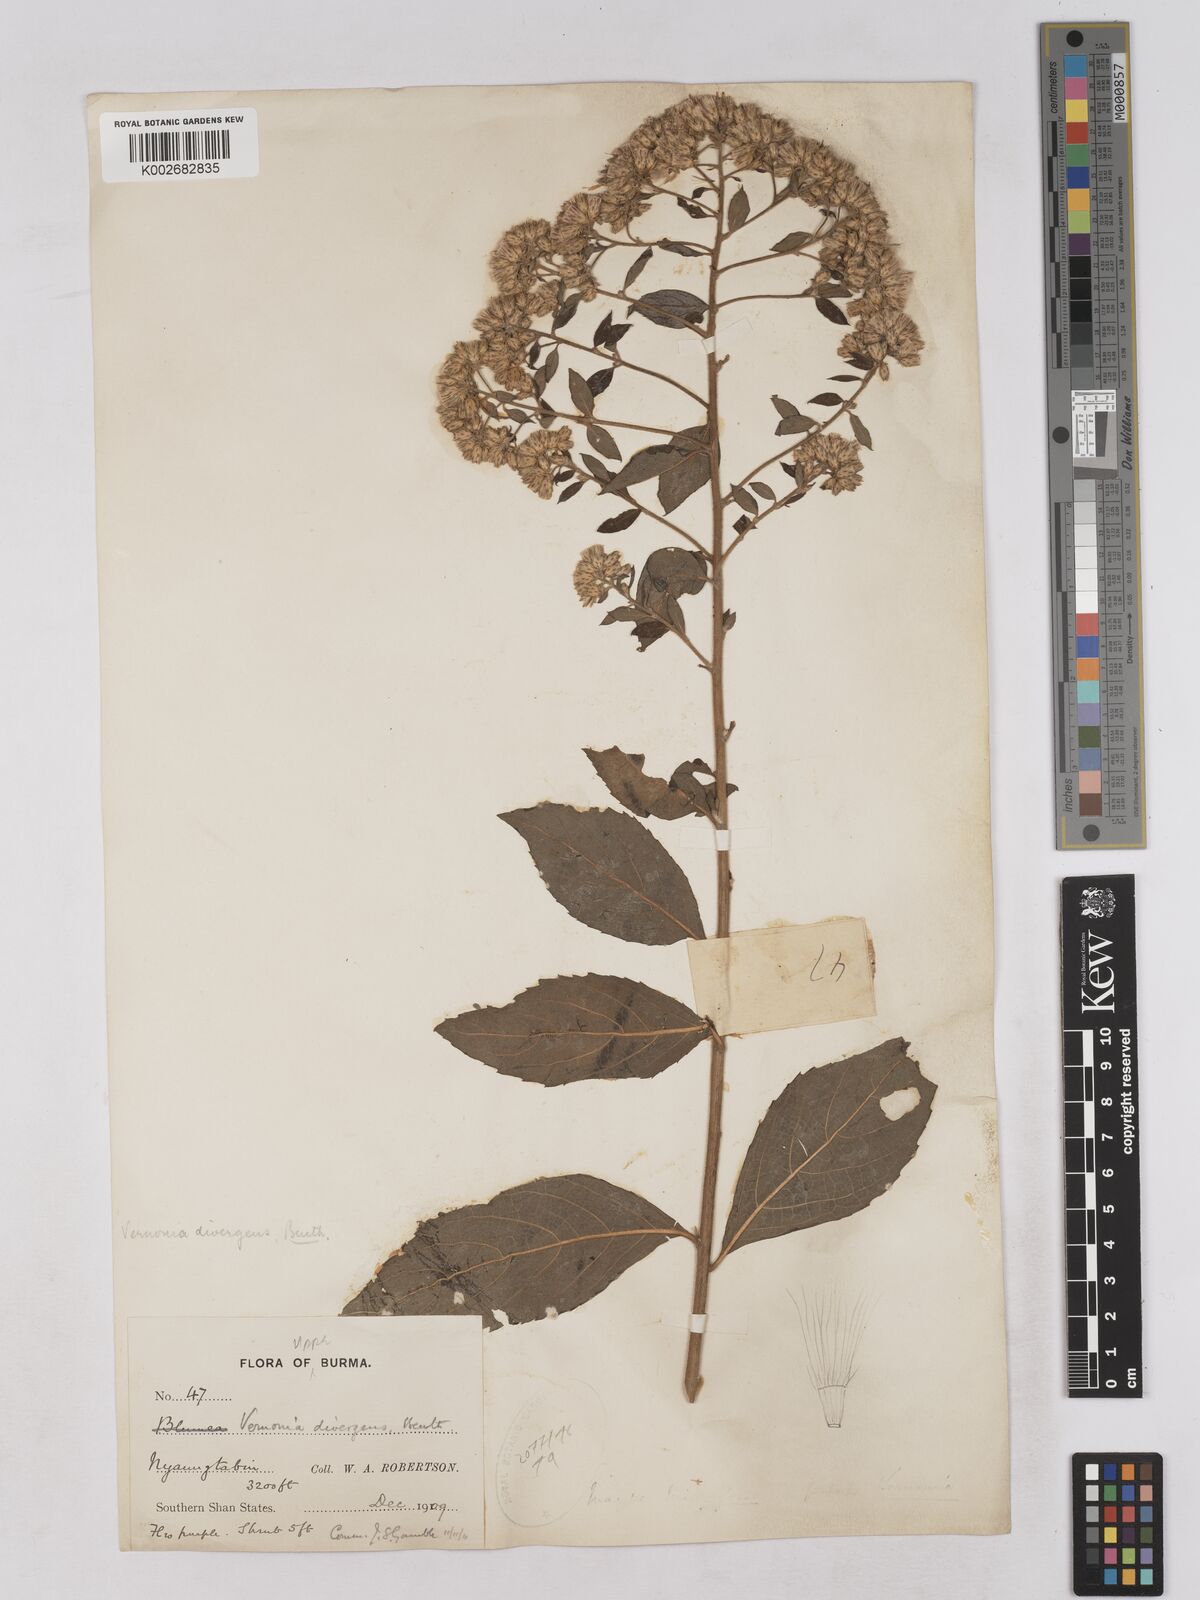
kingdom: Plantae
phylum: Tracheophyta
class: Magnoliopsida
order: Asterales
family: Asteraceae
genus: Acilepis
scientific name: Acilepis divergens
